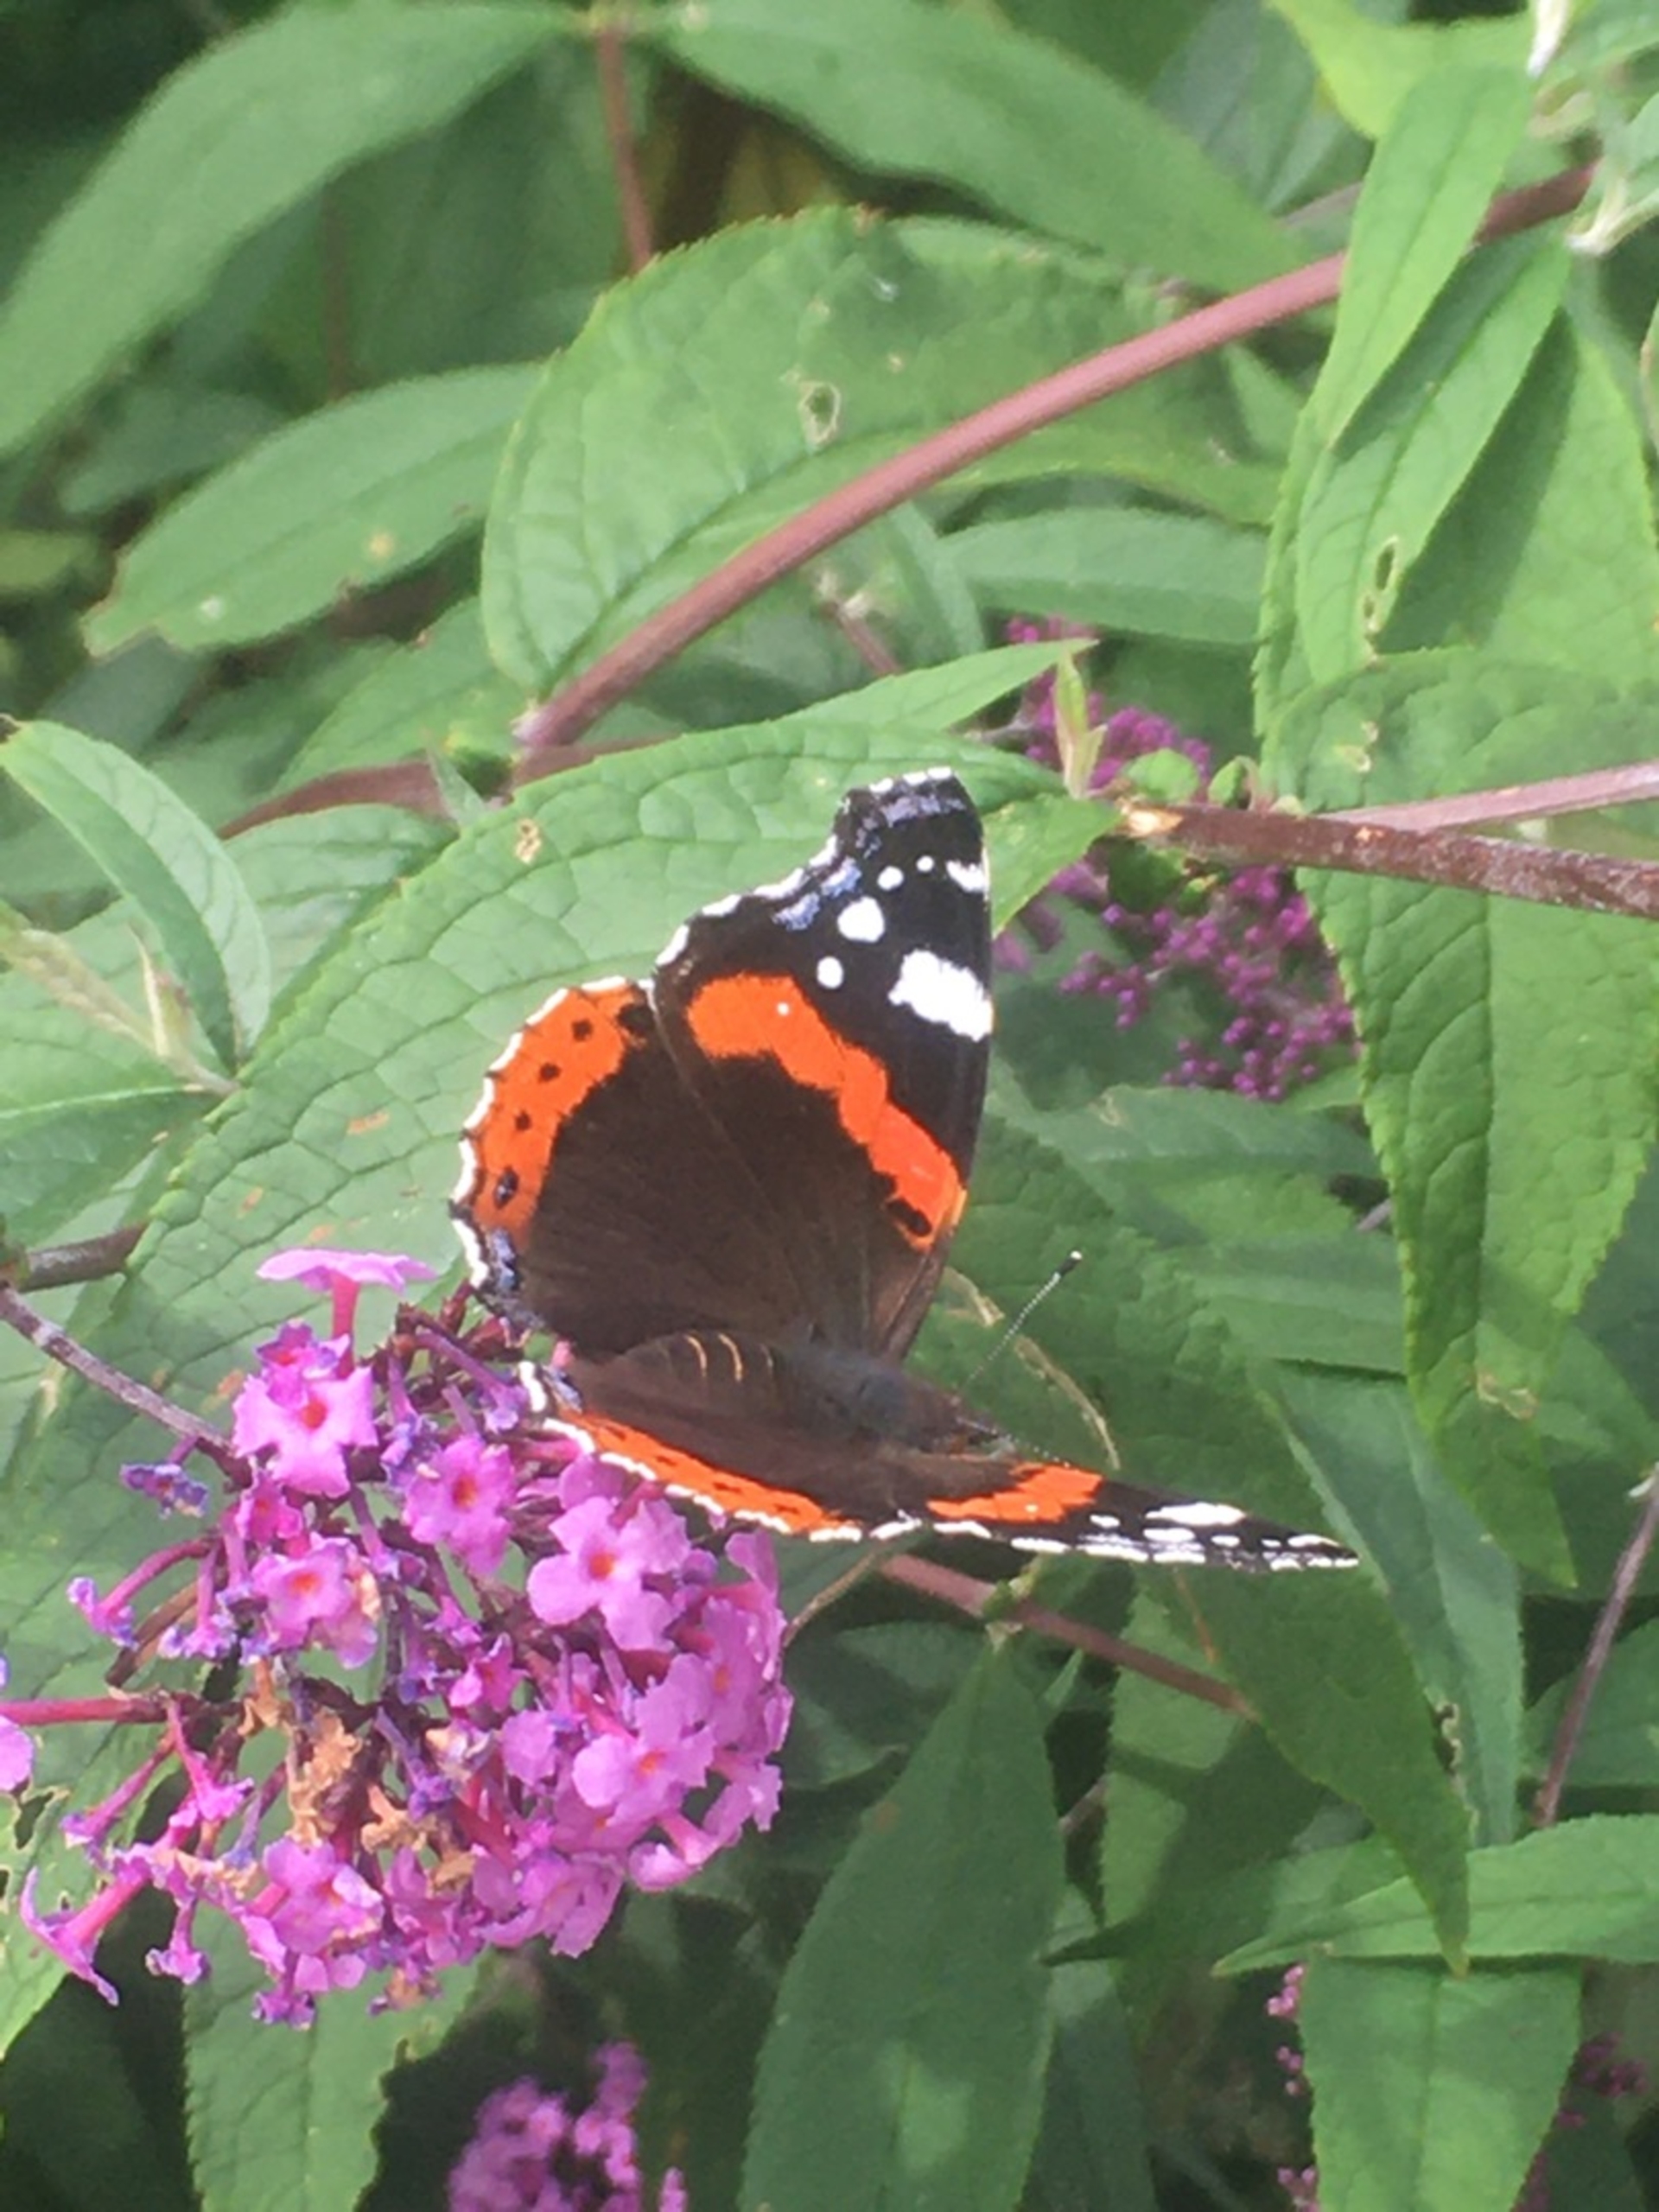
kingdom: Animalia
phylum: Arthropoda
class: Insecta
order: Lepidoptera
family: Nymphalidae
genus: Vanessa
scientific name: Vanessa atalanta
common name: Admiral
